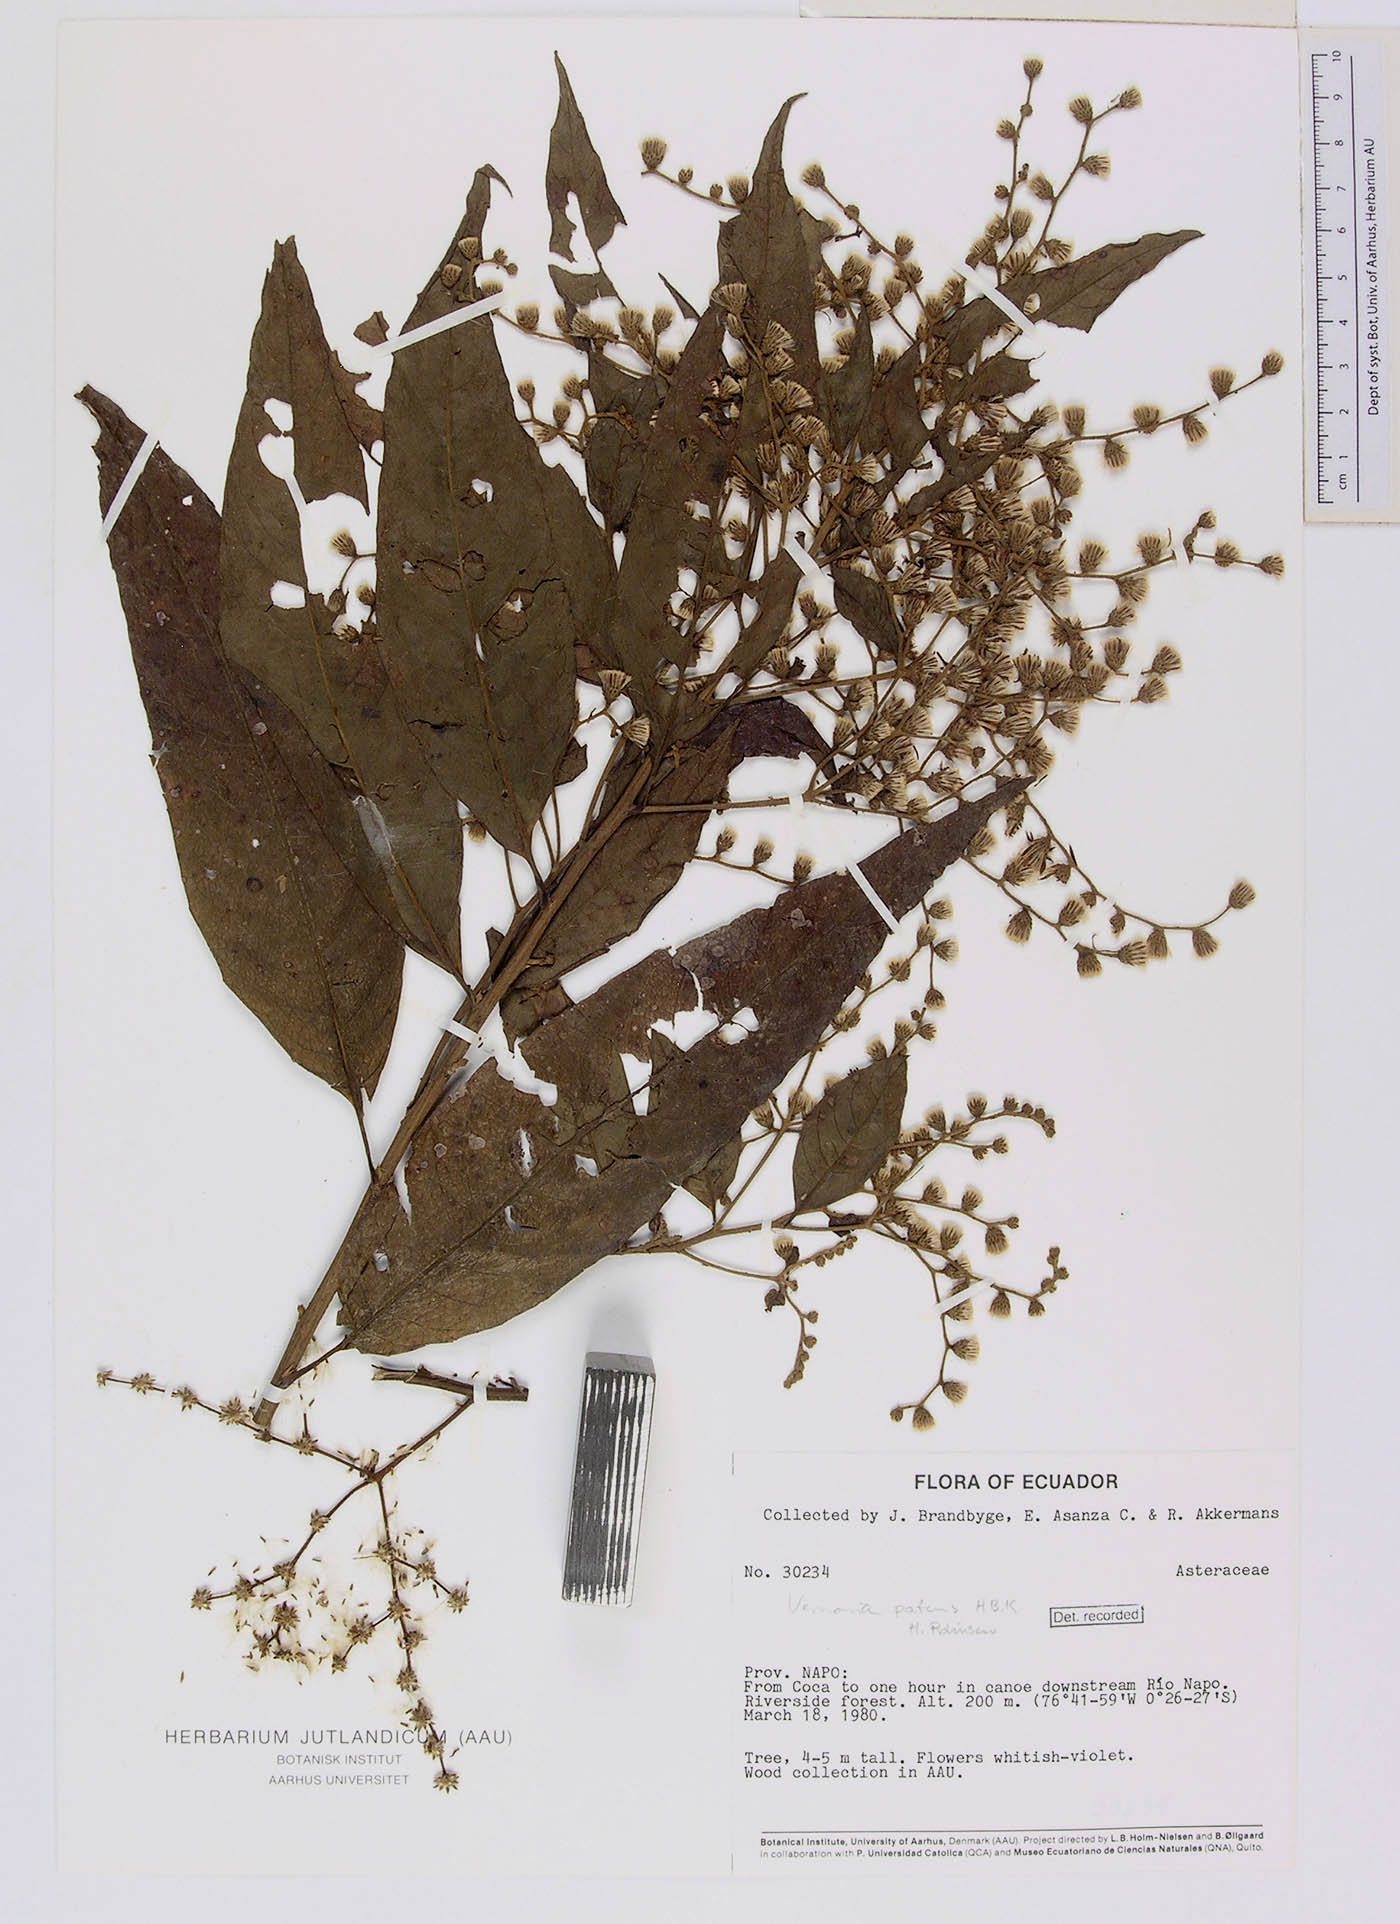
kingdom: Plantae
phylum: Tracheophyta
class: Magnoliopsida
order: Asterales
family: Asteraceae
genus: Vernonanthura
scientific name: Vernonanthura patens
